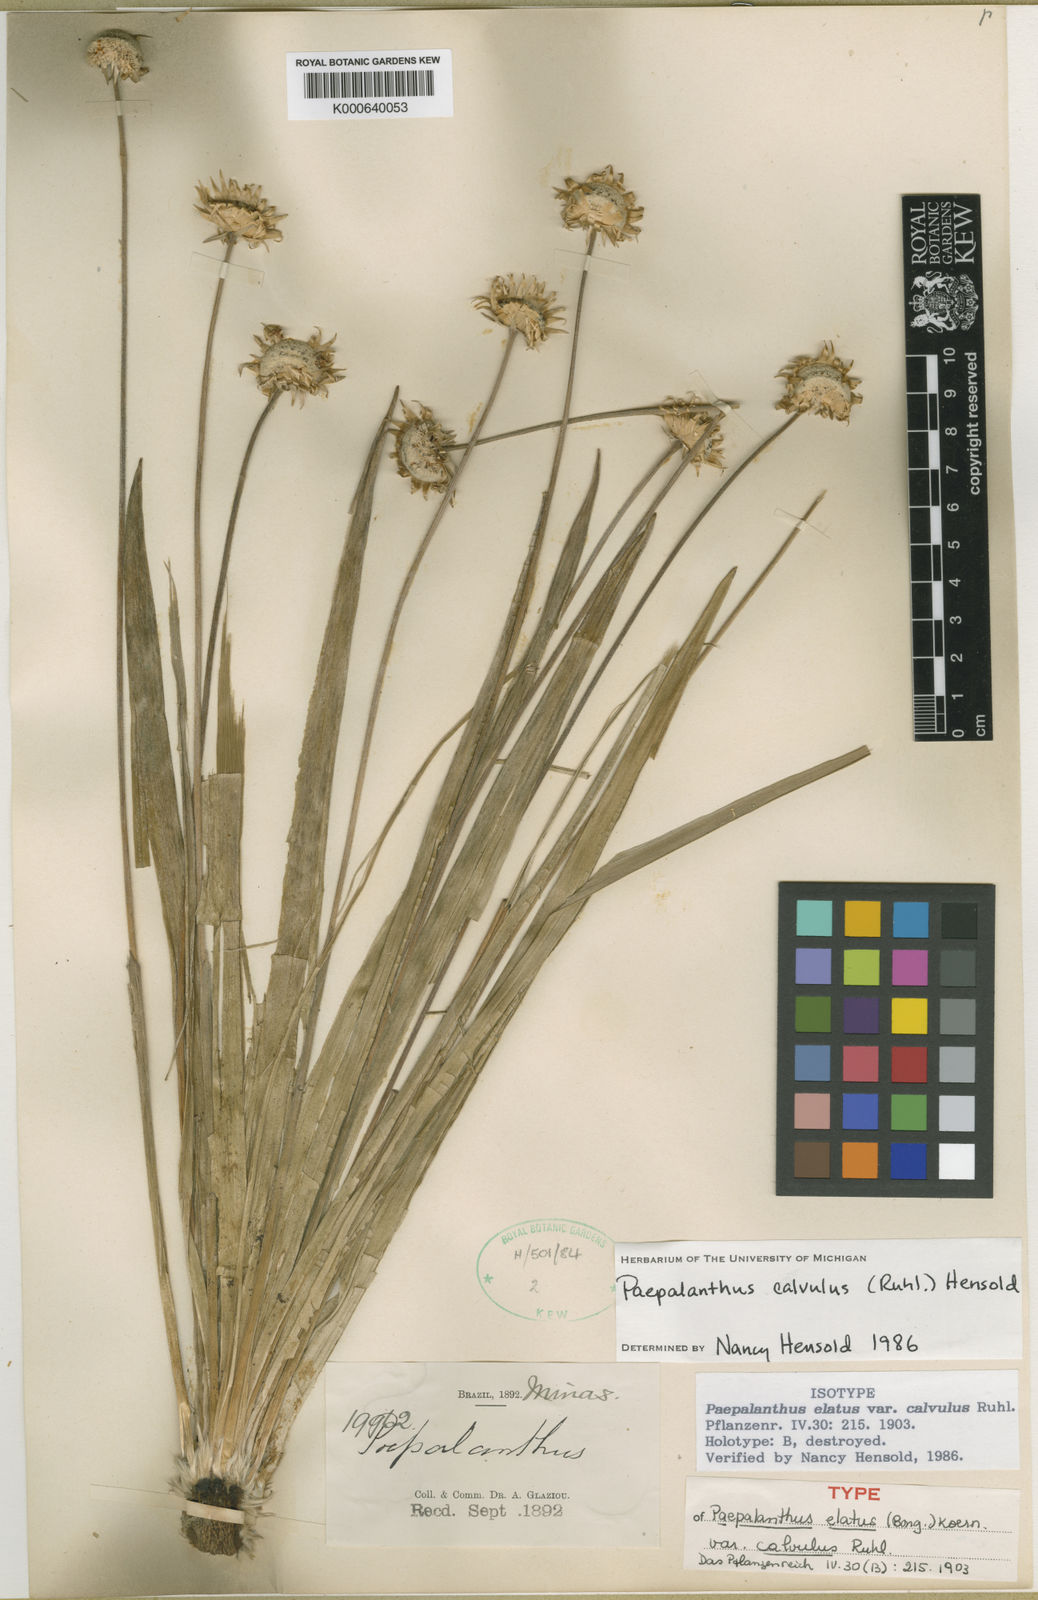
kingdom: Plantae
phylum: Tracheophyta
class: Liliopsida
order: Poales
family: Eriocaulaceae
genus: Paepalanthus
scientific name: Paepalanthus
